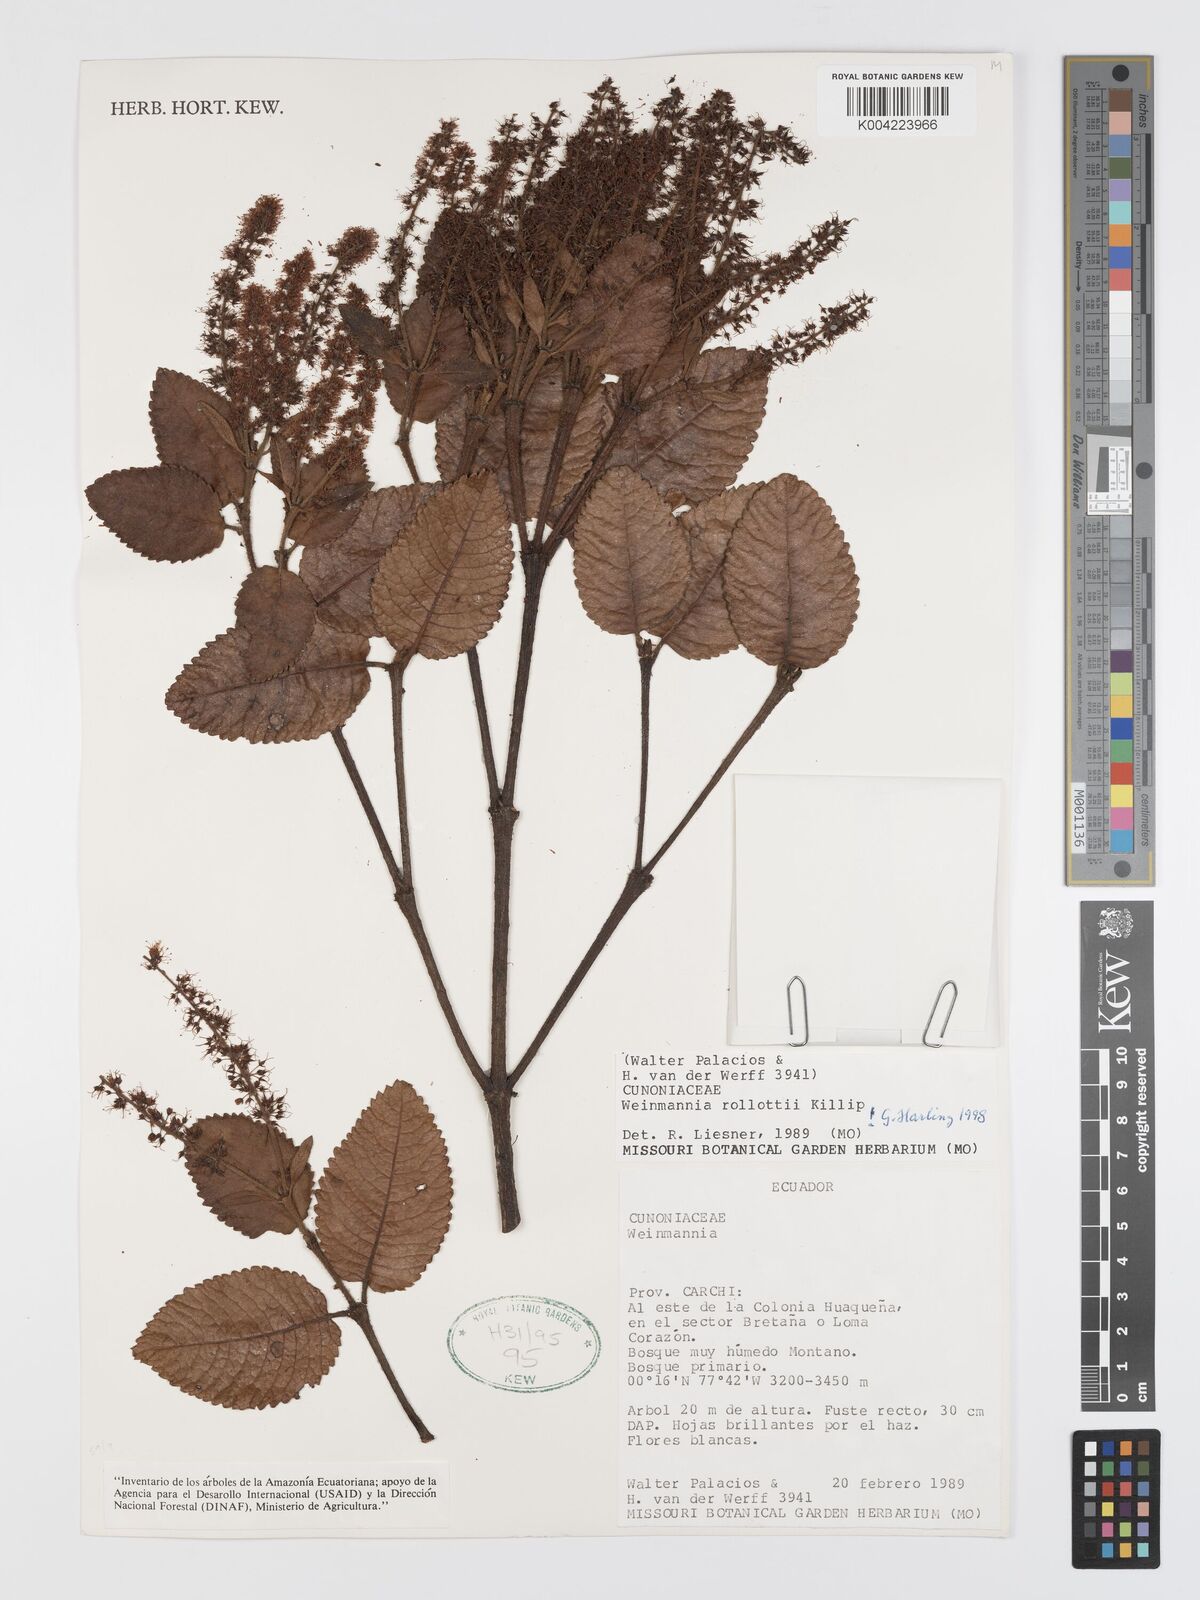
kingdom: Plantae
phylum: Tracheophyta
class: Magnoliopsida
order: Oxalidales
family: Cunoniaceae
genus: Weinmannia
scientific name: Weinmannia rollottii
